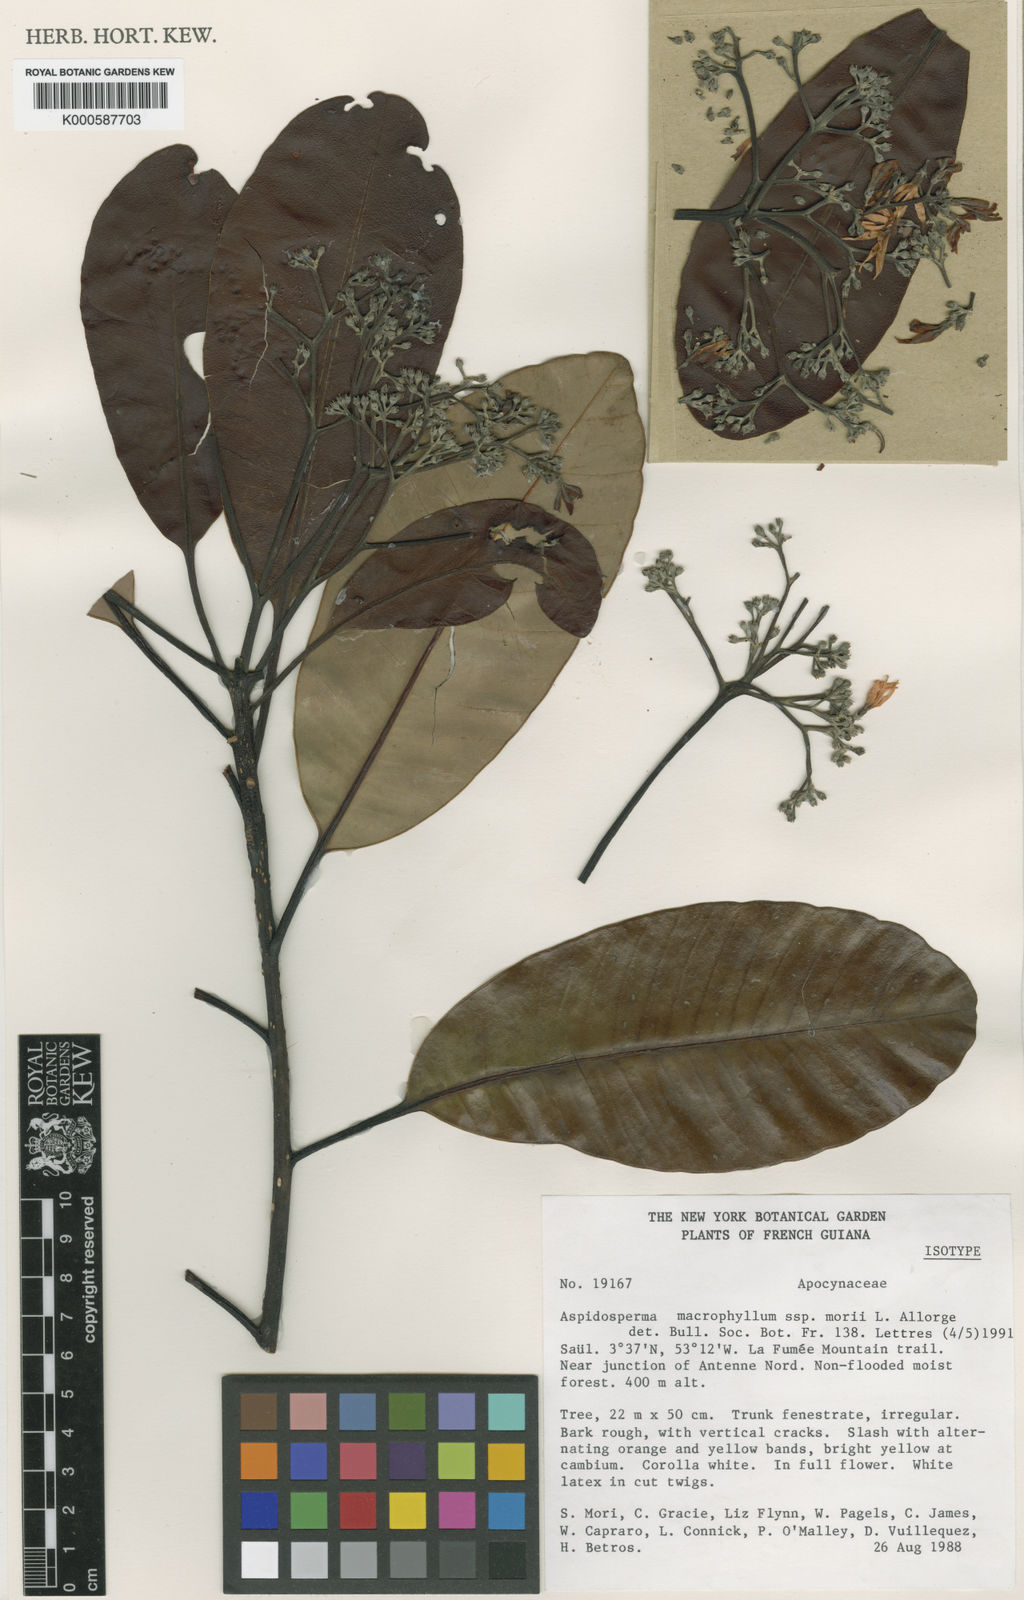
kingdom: Plantae
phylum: Tracheophyta
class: Magnoliopsida
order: Gentianales
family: Apocynaceae
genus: Aspidosperma
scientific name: Aspidosperma
